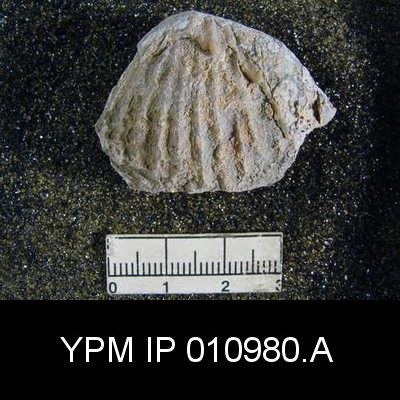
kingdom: Animalia
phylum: Brachiopoda
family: Meekellidae
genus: Meekella
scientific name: Meekella skenoides
